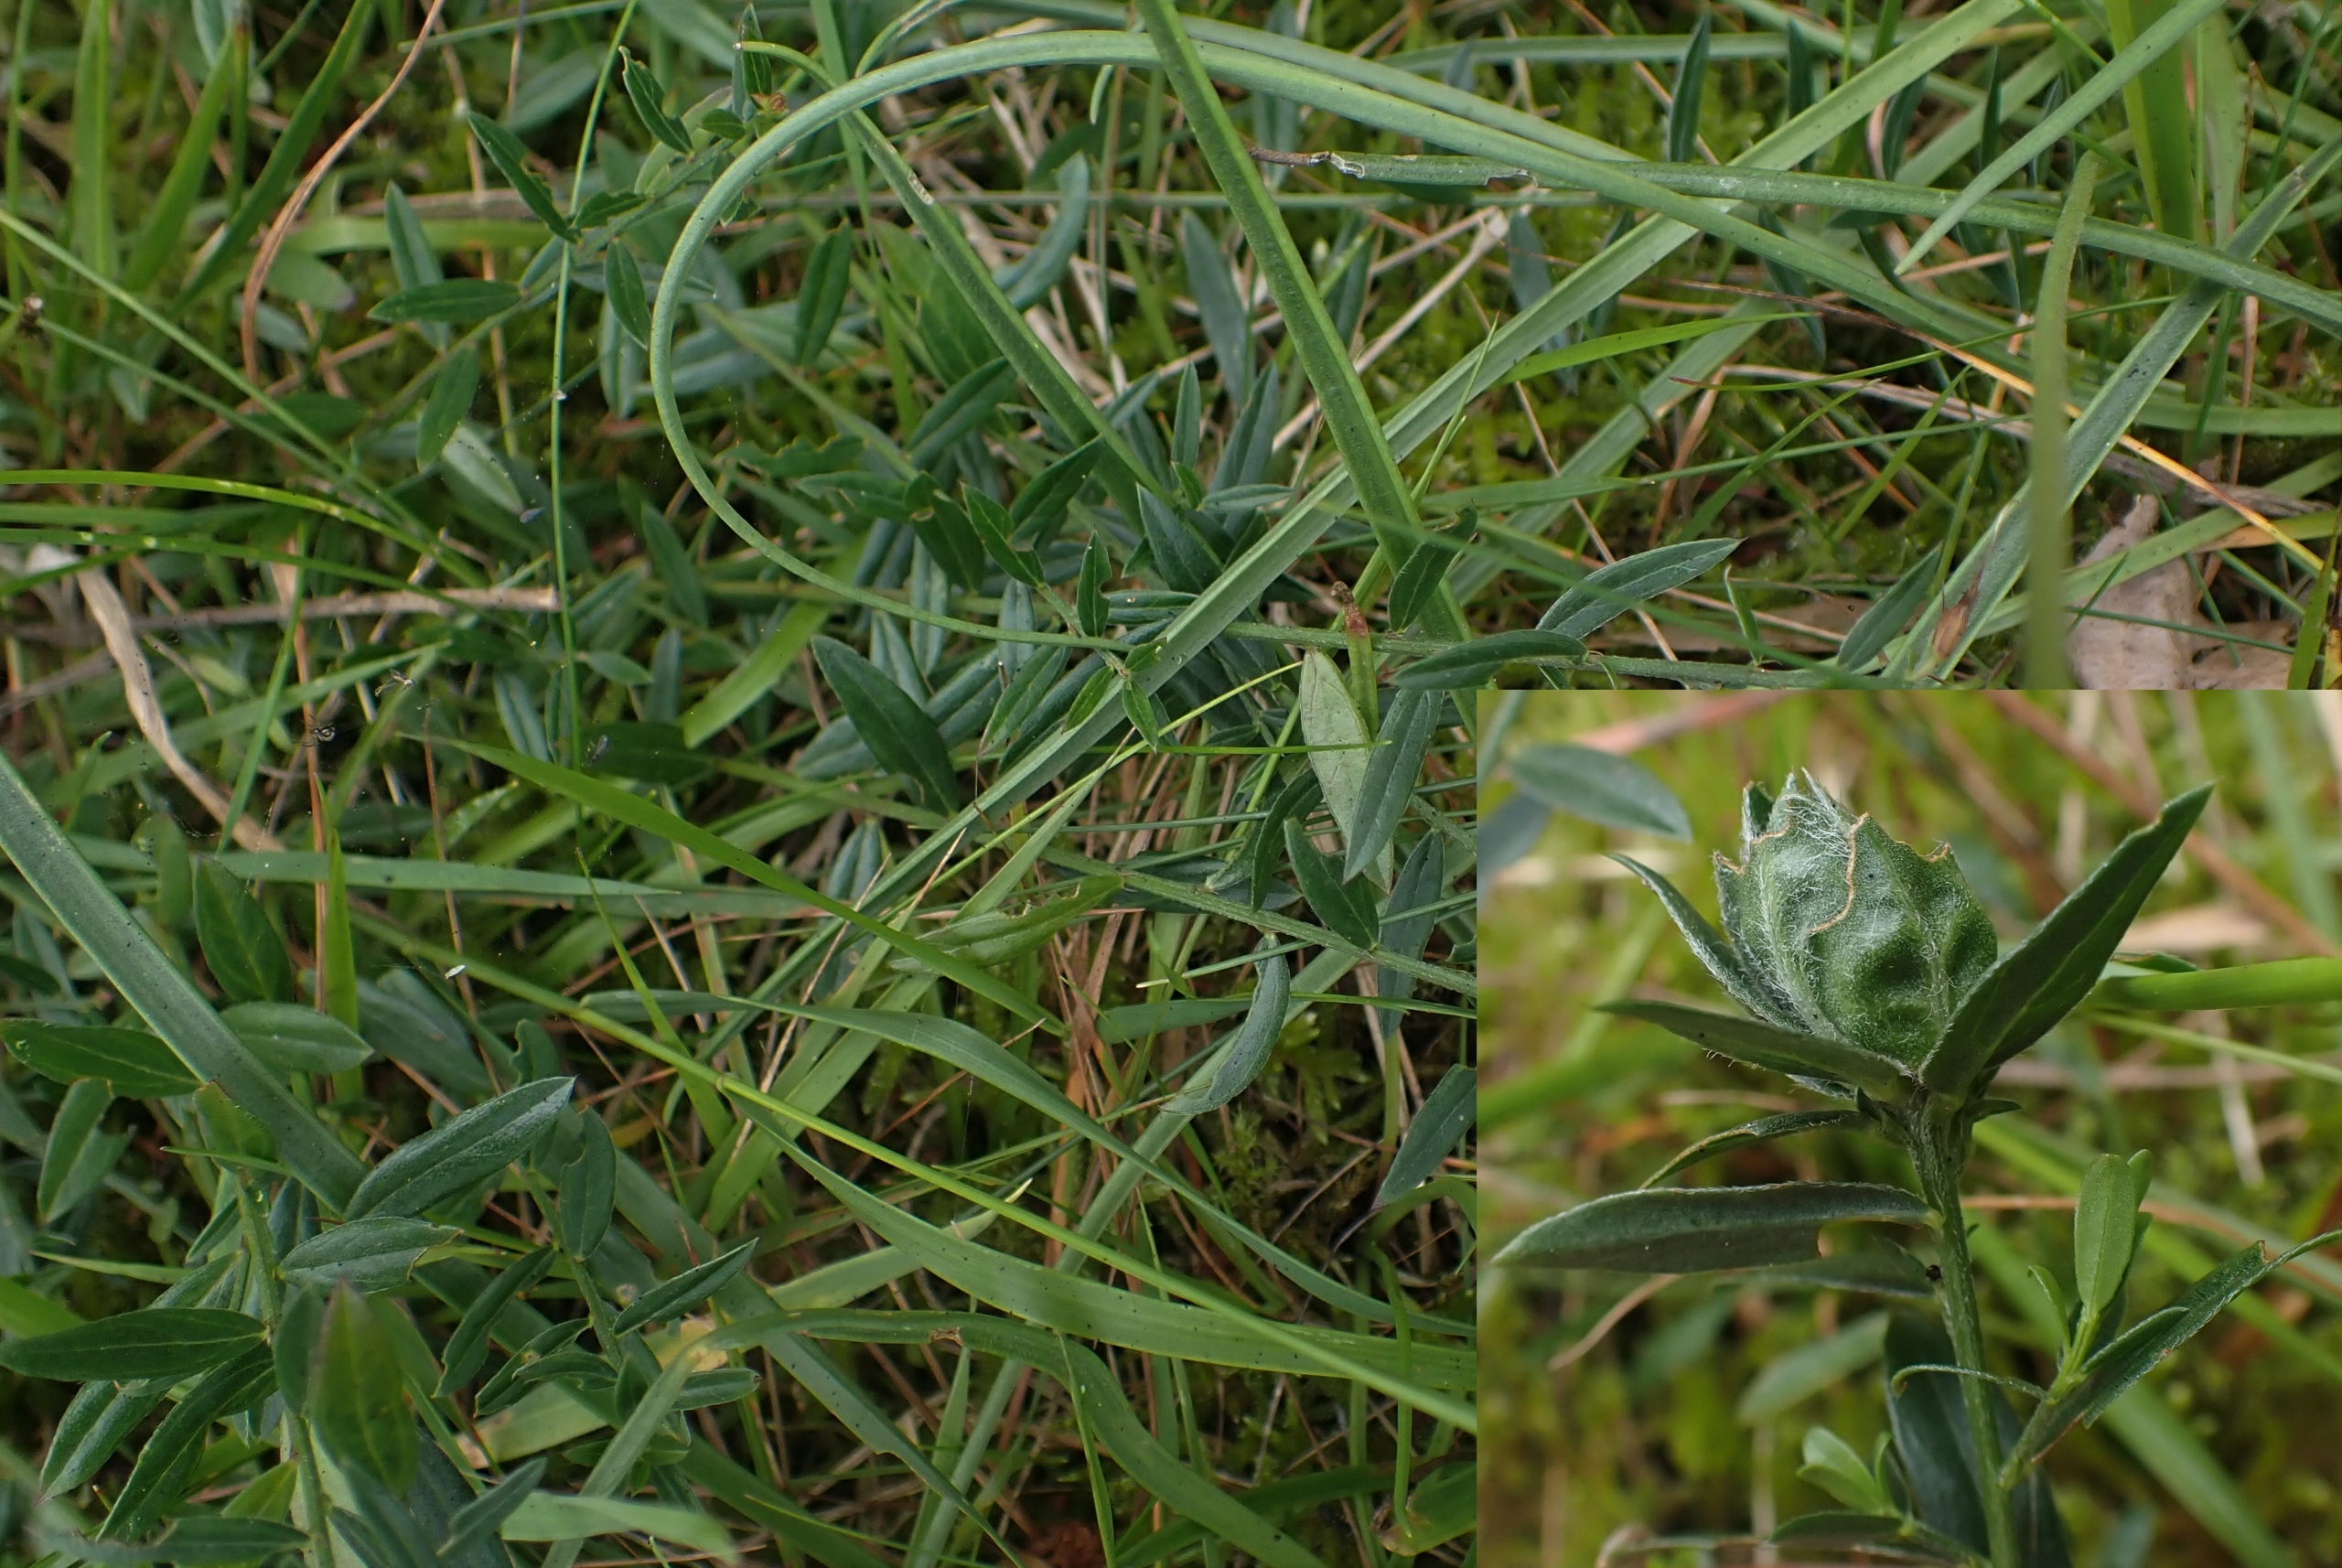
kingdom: Animalia
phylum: Arthropoda
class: Insecta
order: Diptera
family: Cecidomyiidae
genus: Jaapiella
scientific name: Jaapiella genisticola
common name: Farvevissegalmyg
